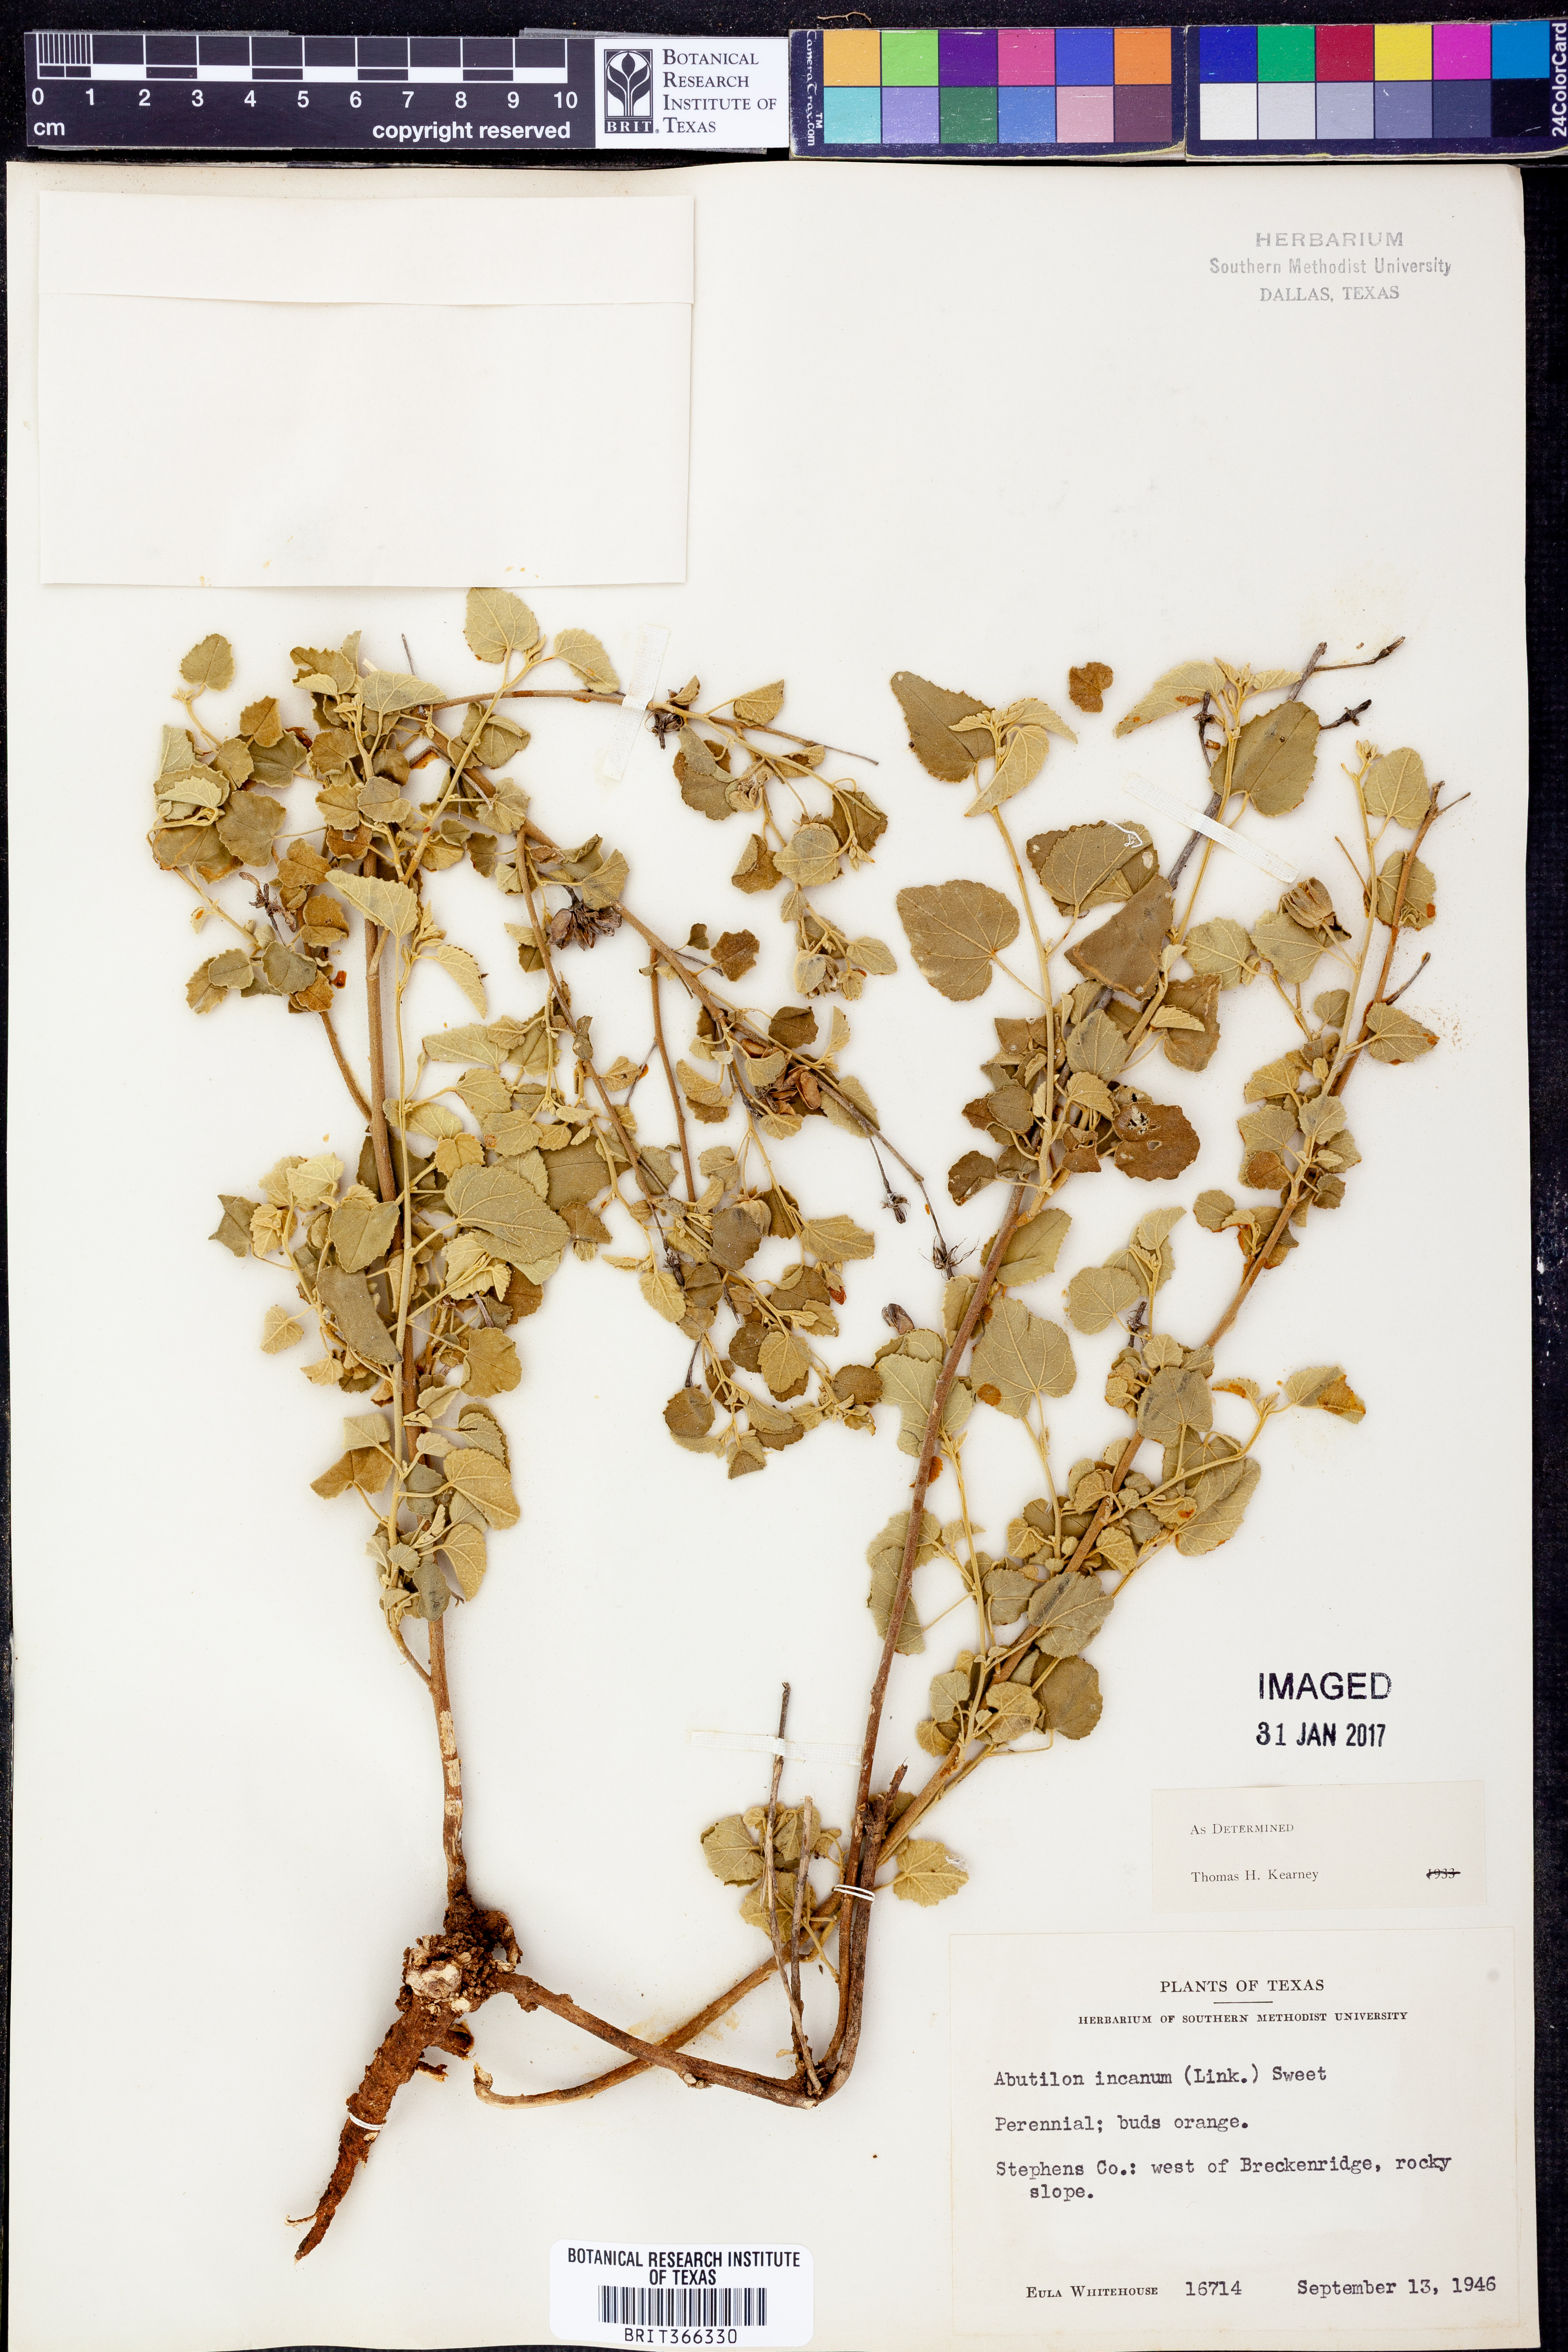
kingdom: Plantae
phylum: Tracheophyta
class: Magnoliopsida
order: Malvales
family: Malvaceae
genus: Abutilon
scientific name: Abutilon incanum
